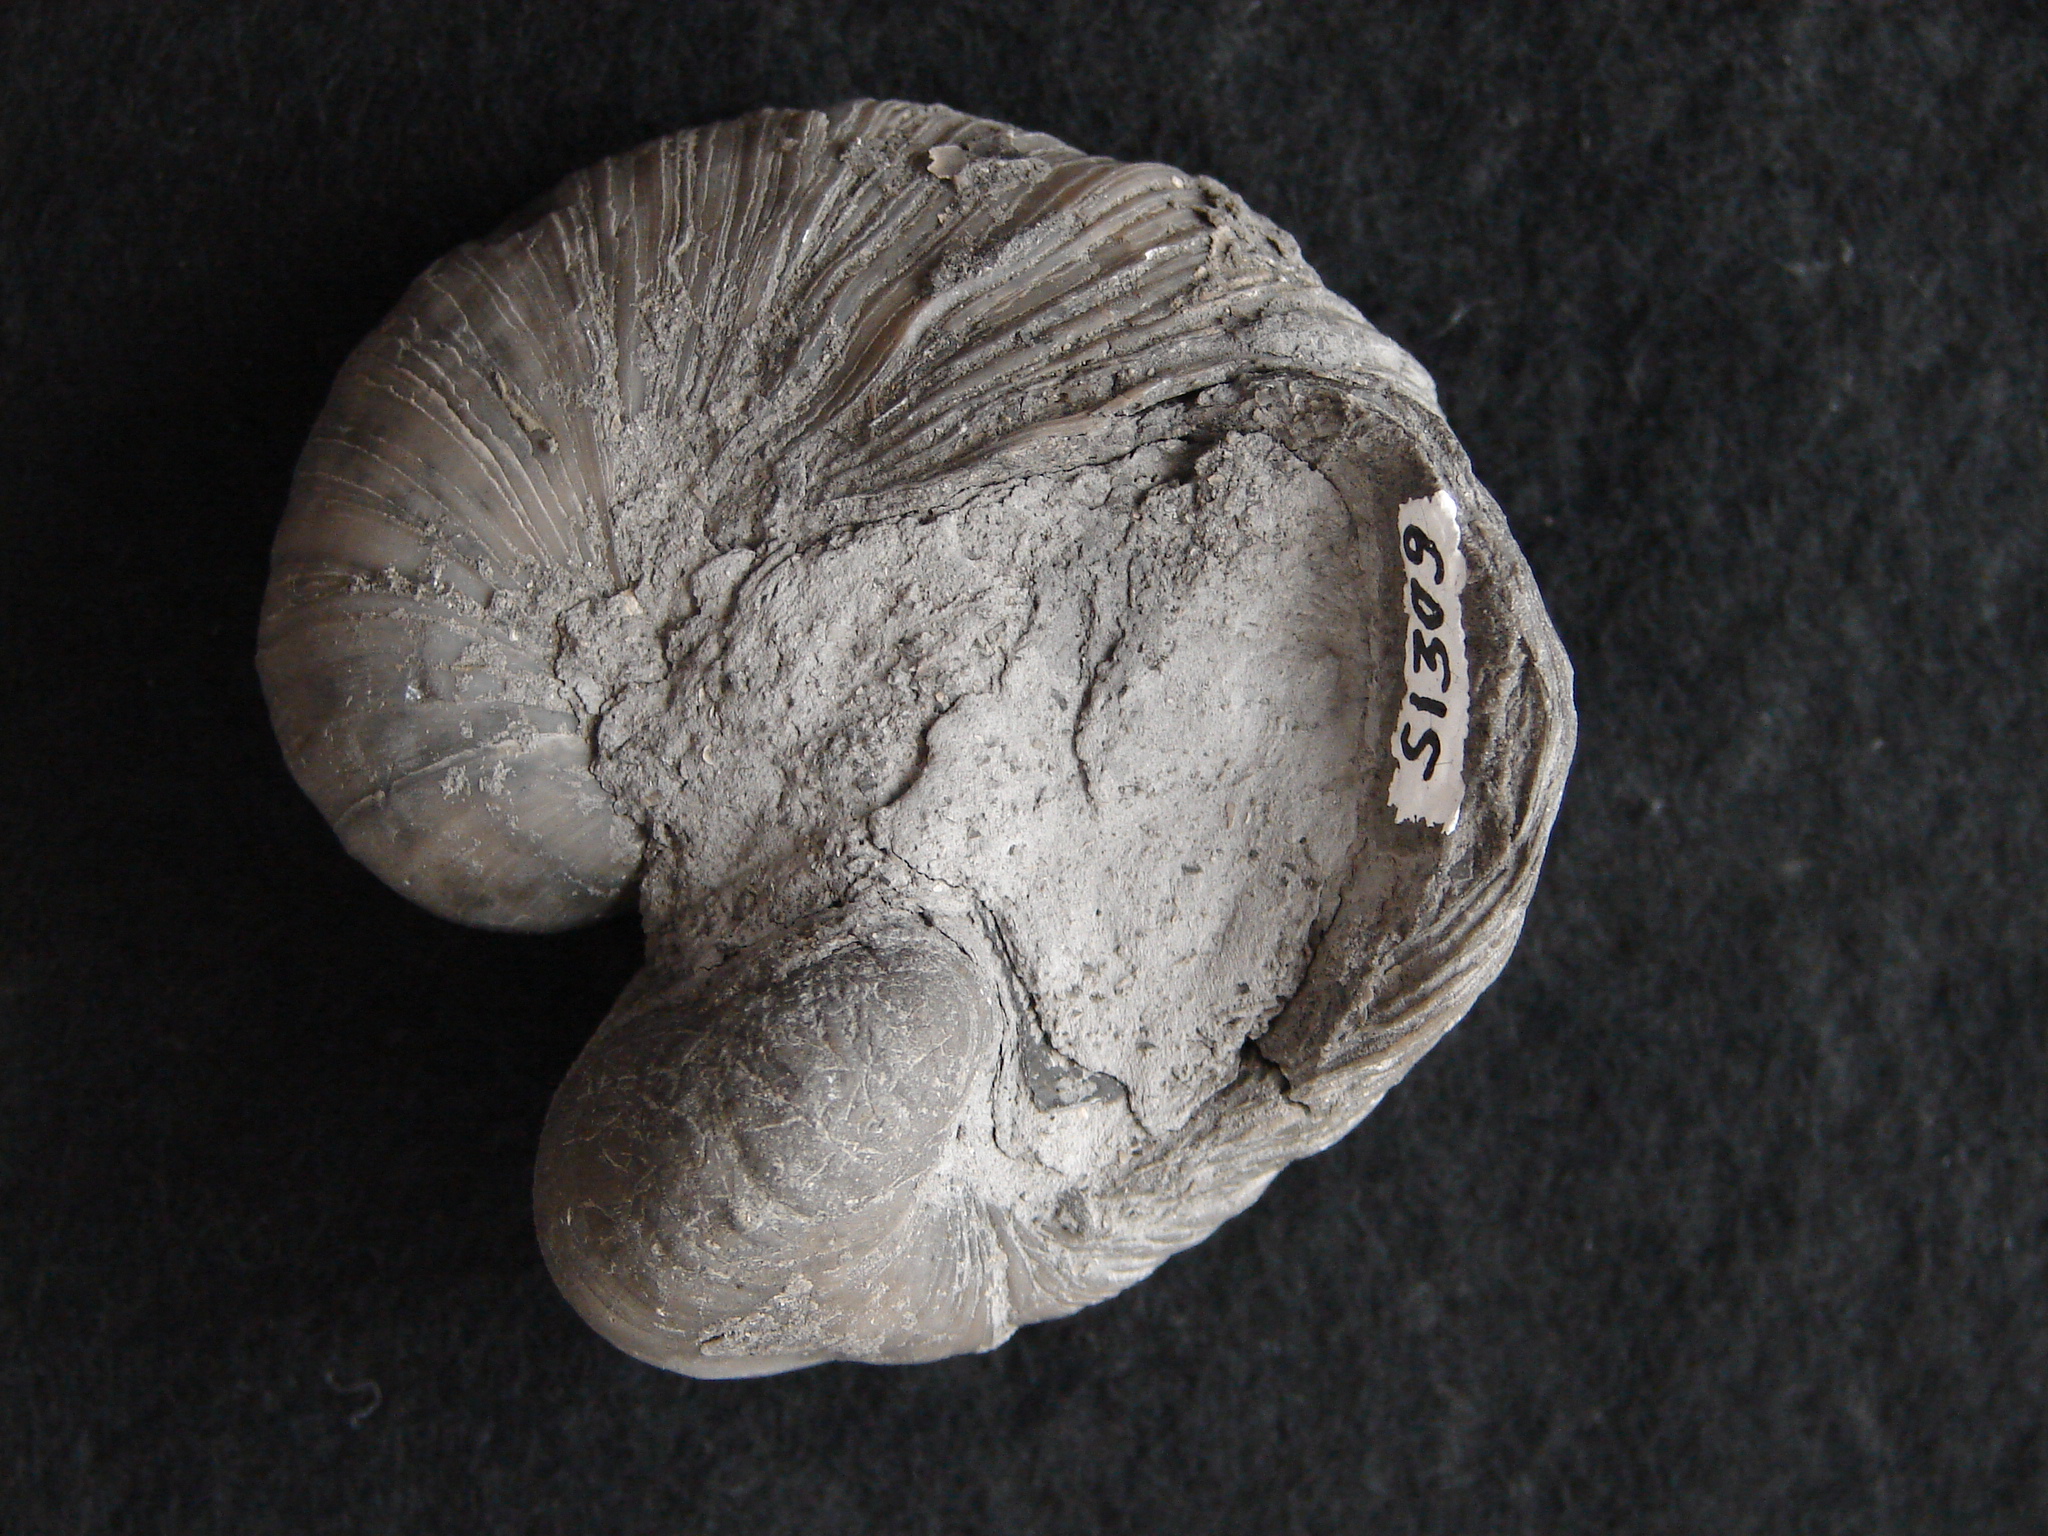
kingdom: Animalia
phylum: Mollusca
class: Bivalvia
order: Ostreida
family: Gryphaeidae
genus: Gryphaea
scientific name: Gryphaea arcuata
